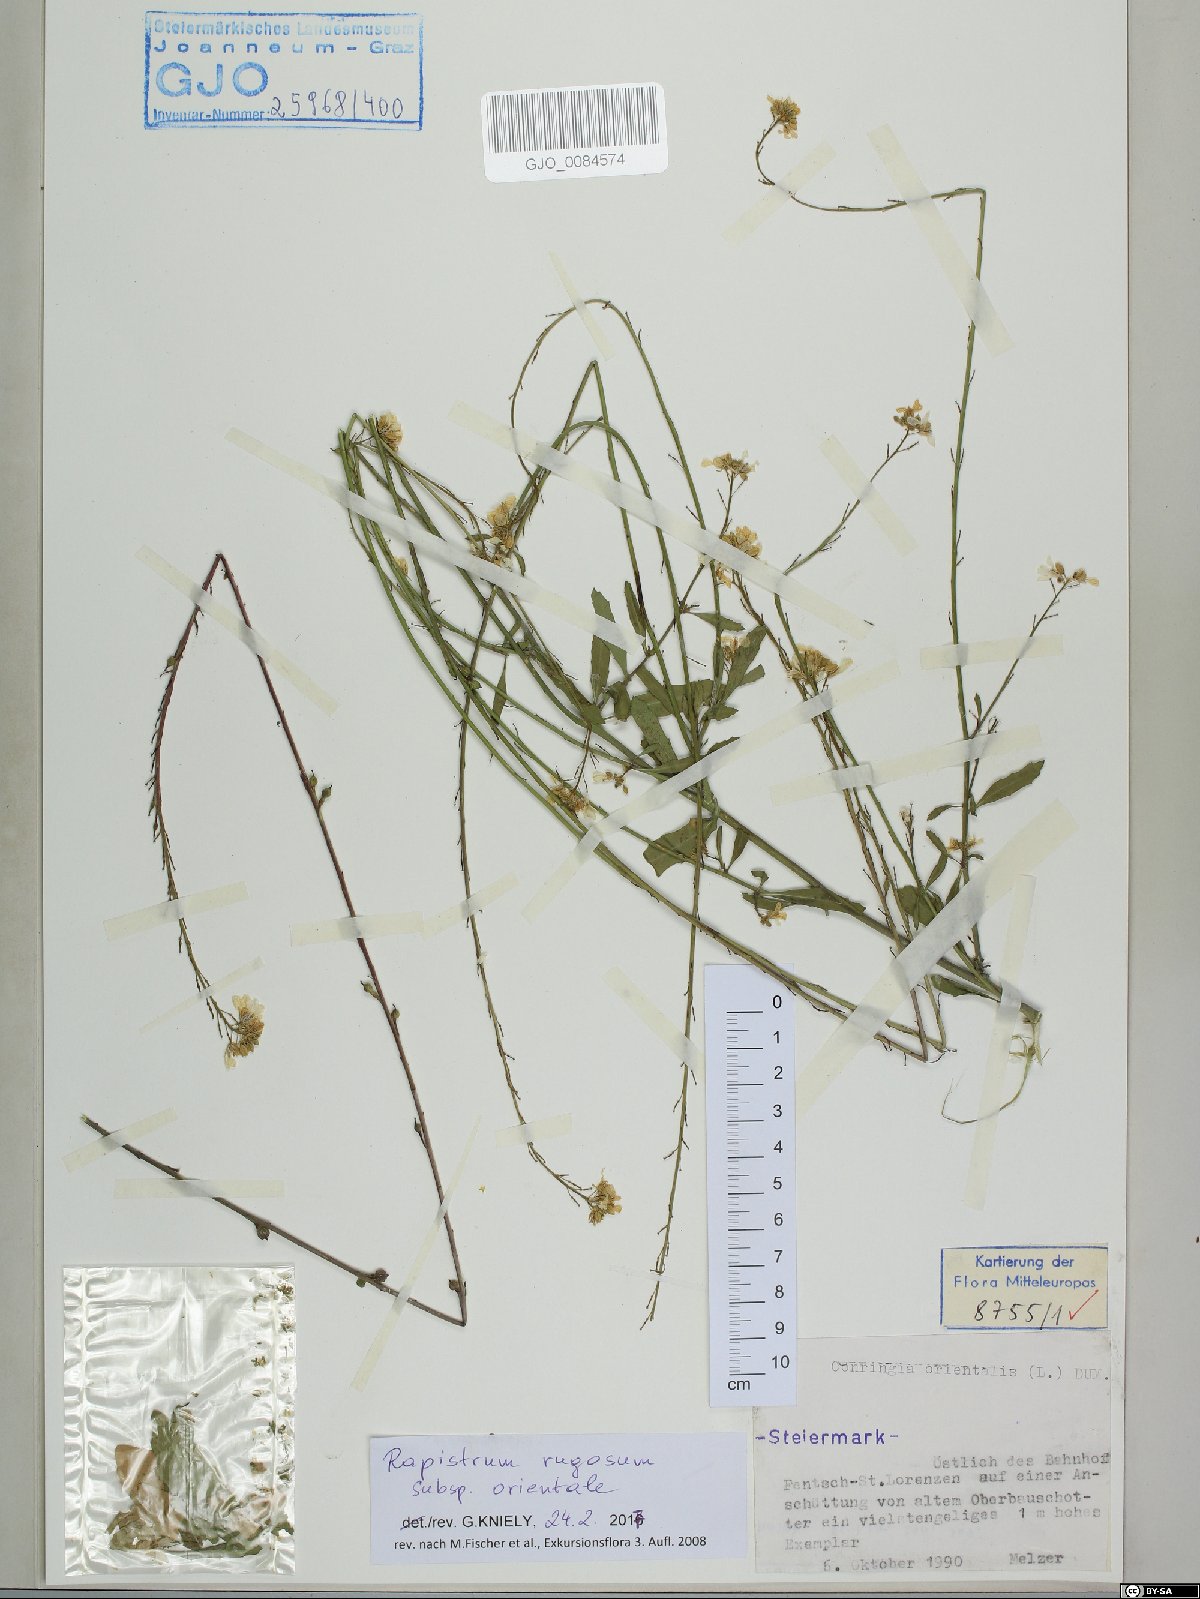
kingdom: Plantae
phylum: Tracheophyta
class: Magnoliopsida
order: Brassicales
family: Brassicaceae
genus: Rapistrum
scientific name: Rapistrum rugosum
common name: Annual bastardcabbage
